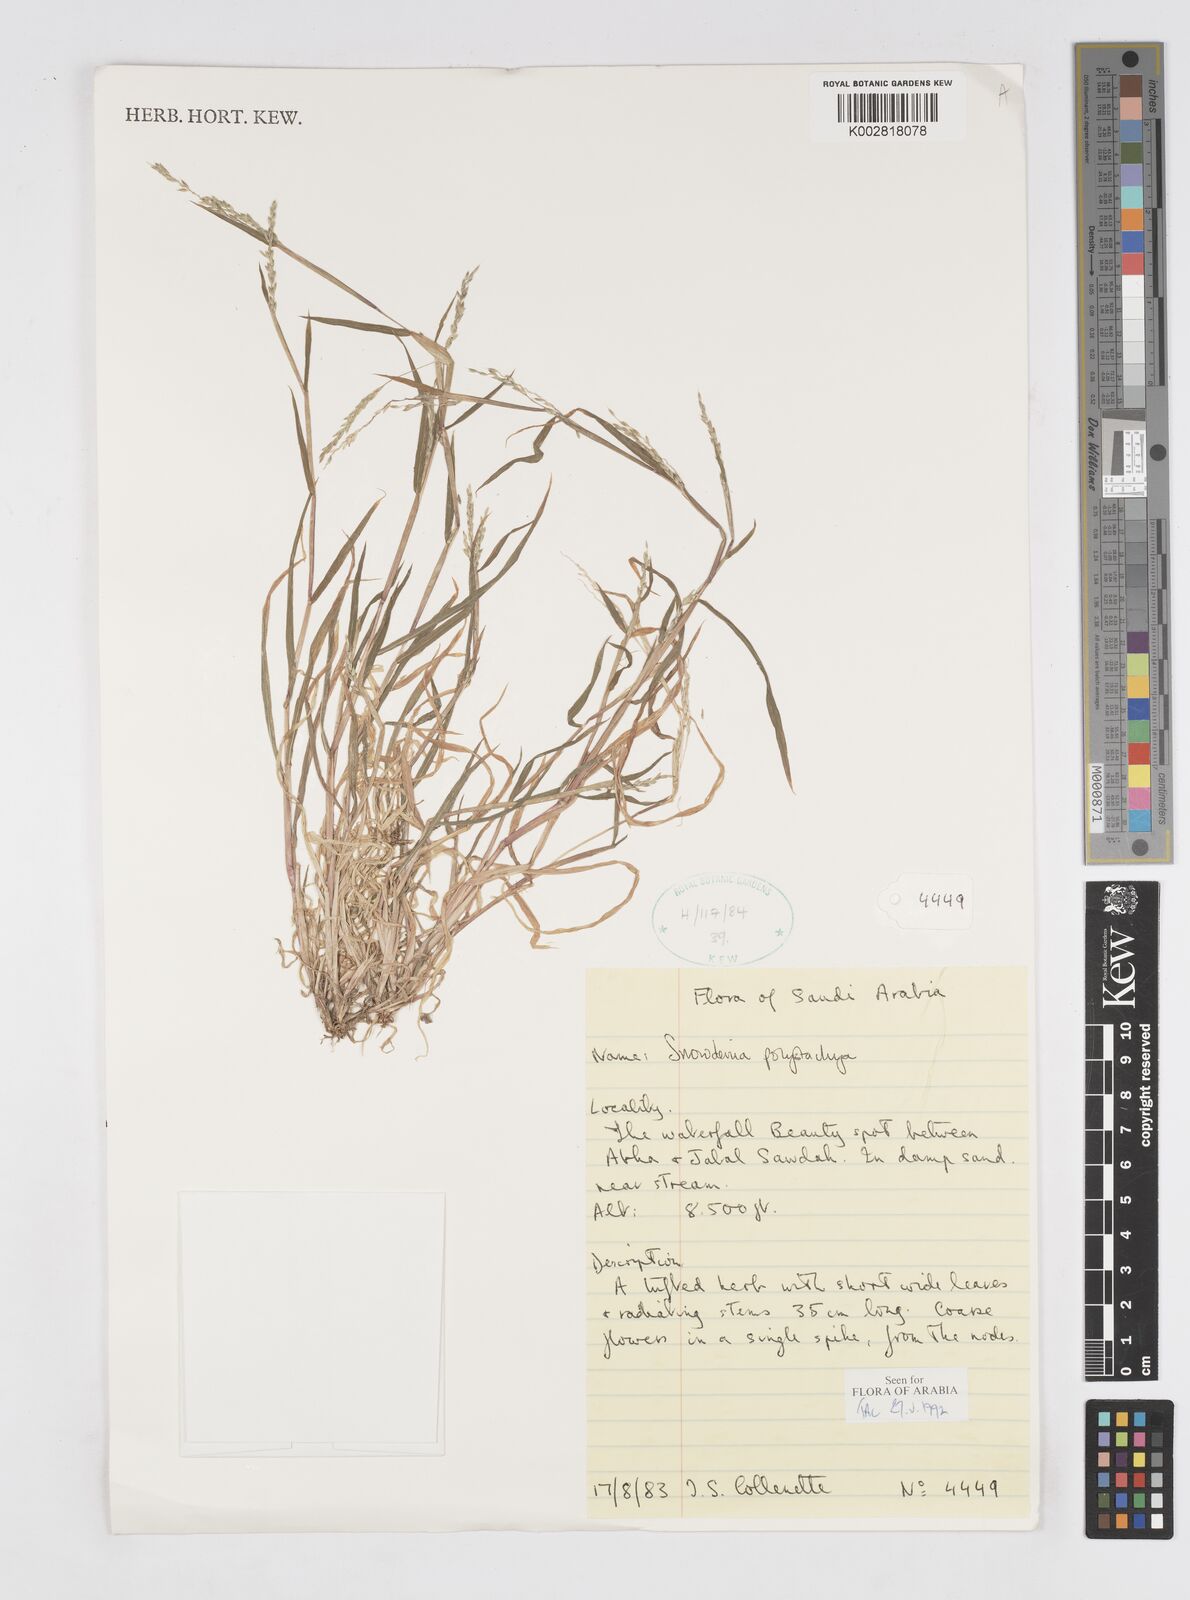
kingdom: Plantae
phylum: Tracheophyta
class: Liliopsida
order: Poales
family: Poaceae
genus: Snowdenia
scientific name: Snowdenia polystachya
